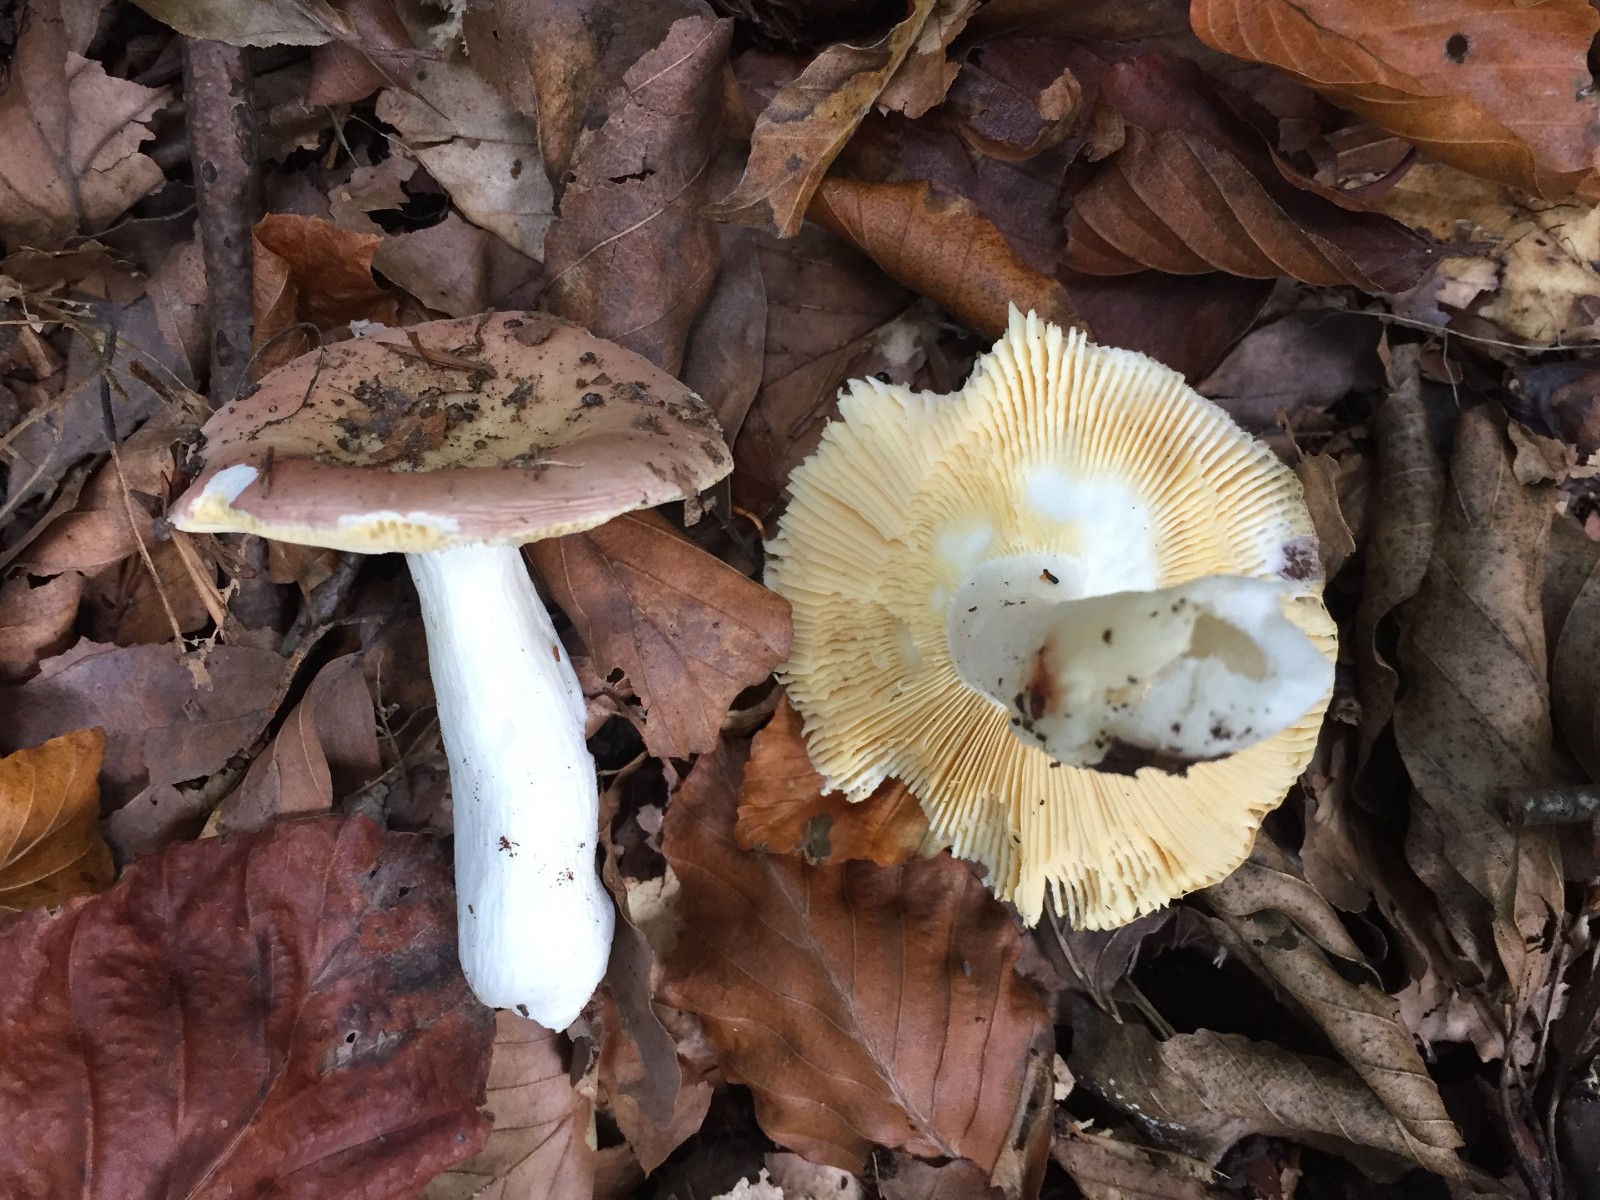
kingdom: Fungi
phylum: Basidiomycota
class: Agaricomycetes
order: Russulales
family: Russulaceae
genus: Russula
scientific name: Russula
